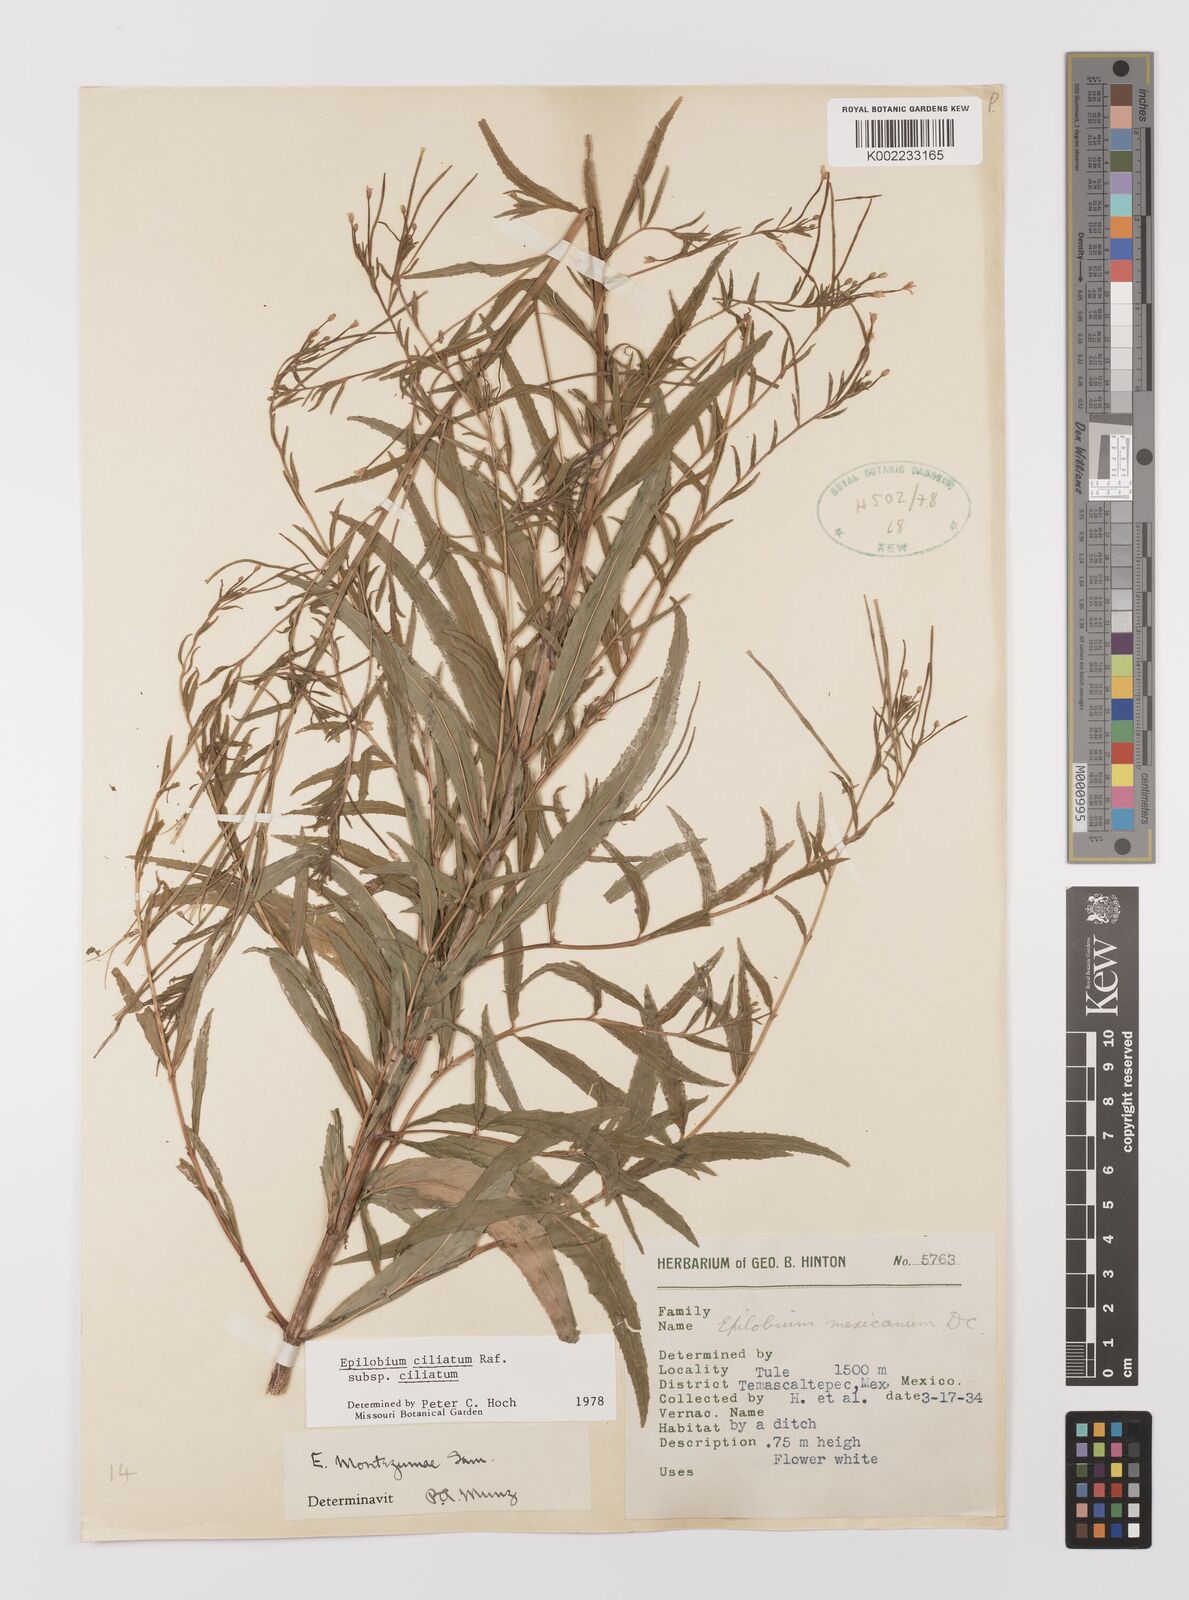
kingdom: Plantae
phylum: Tracheophyta
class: Magnoliopsida
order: Myrtales
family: Onagraceae
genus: Epilobium
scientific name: Epilobium ciliatum
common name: American willowherb
